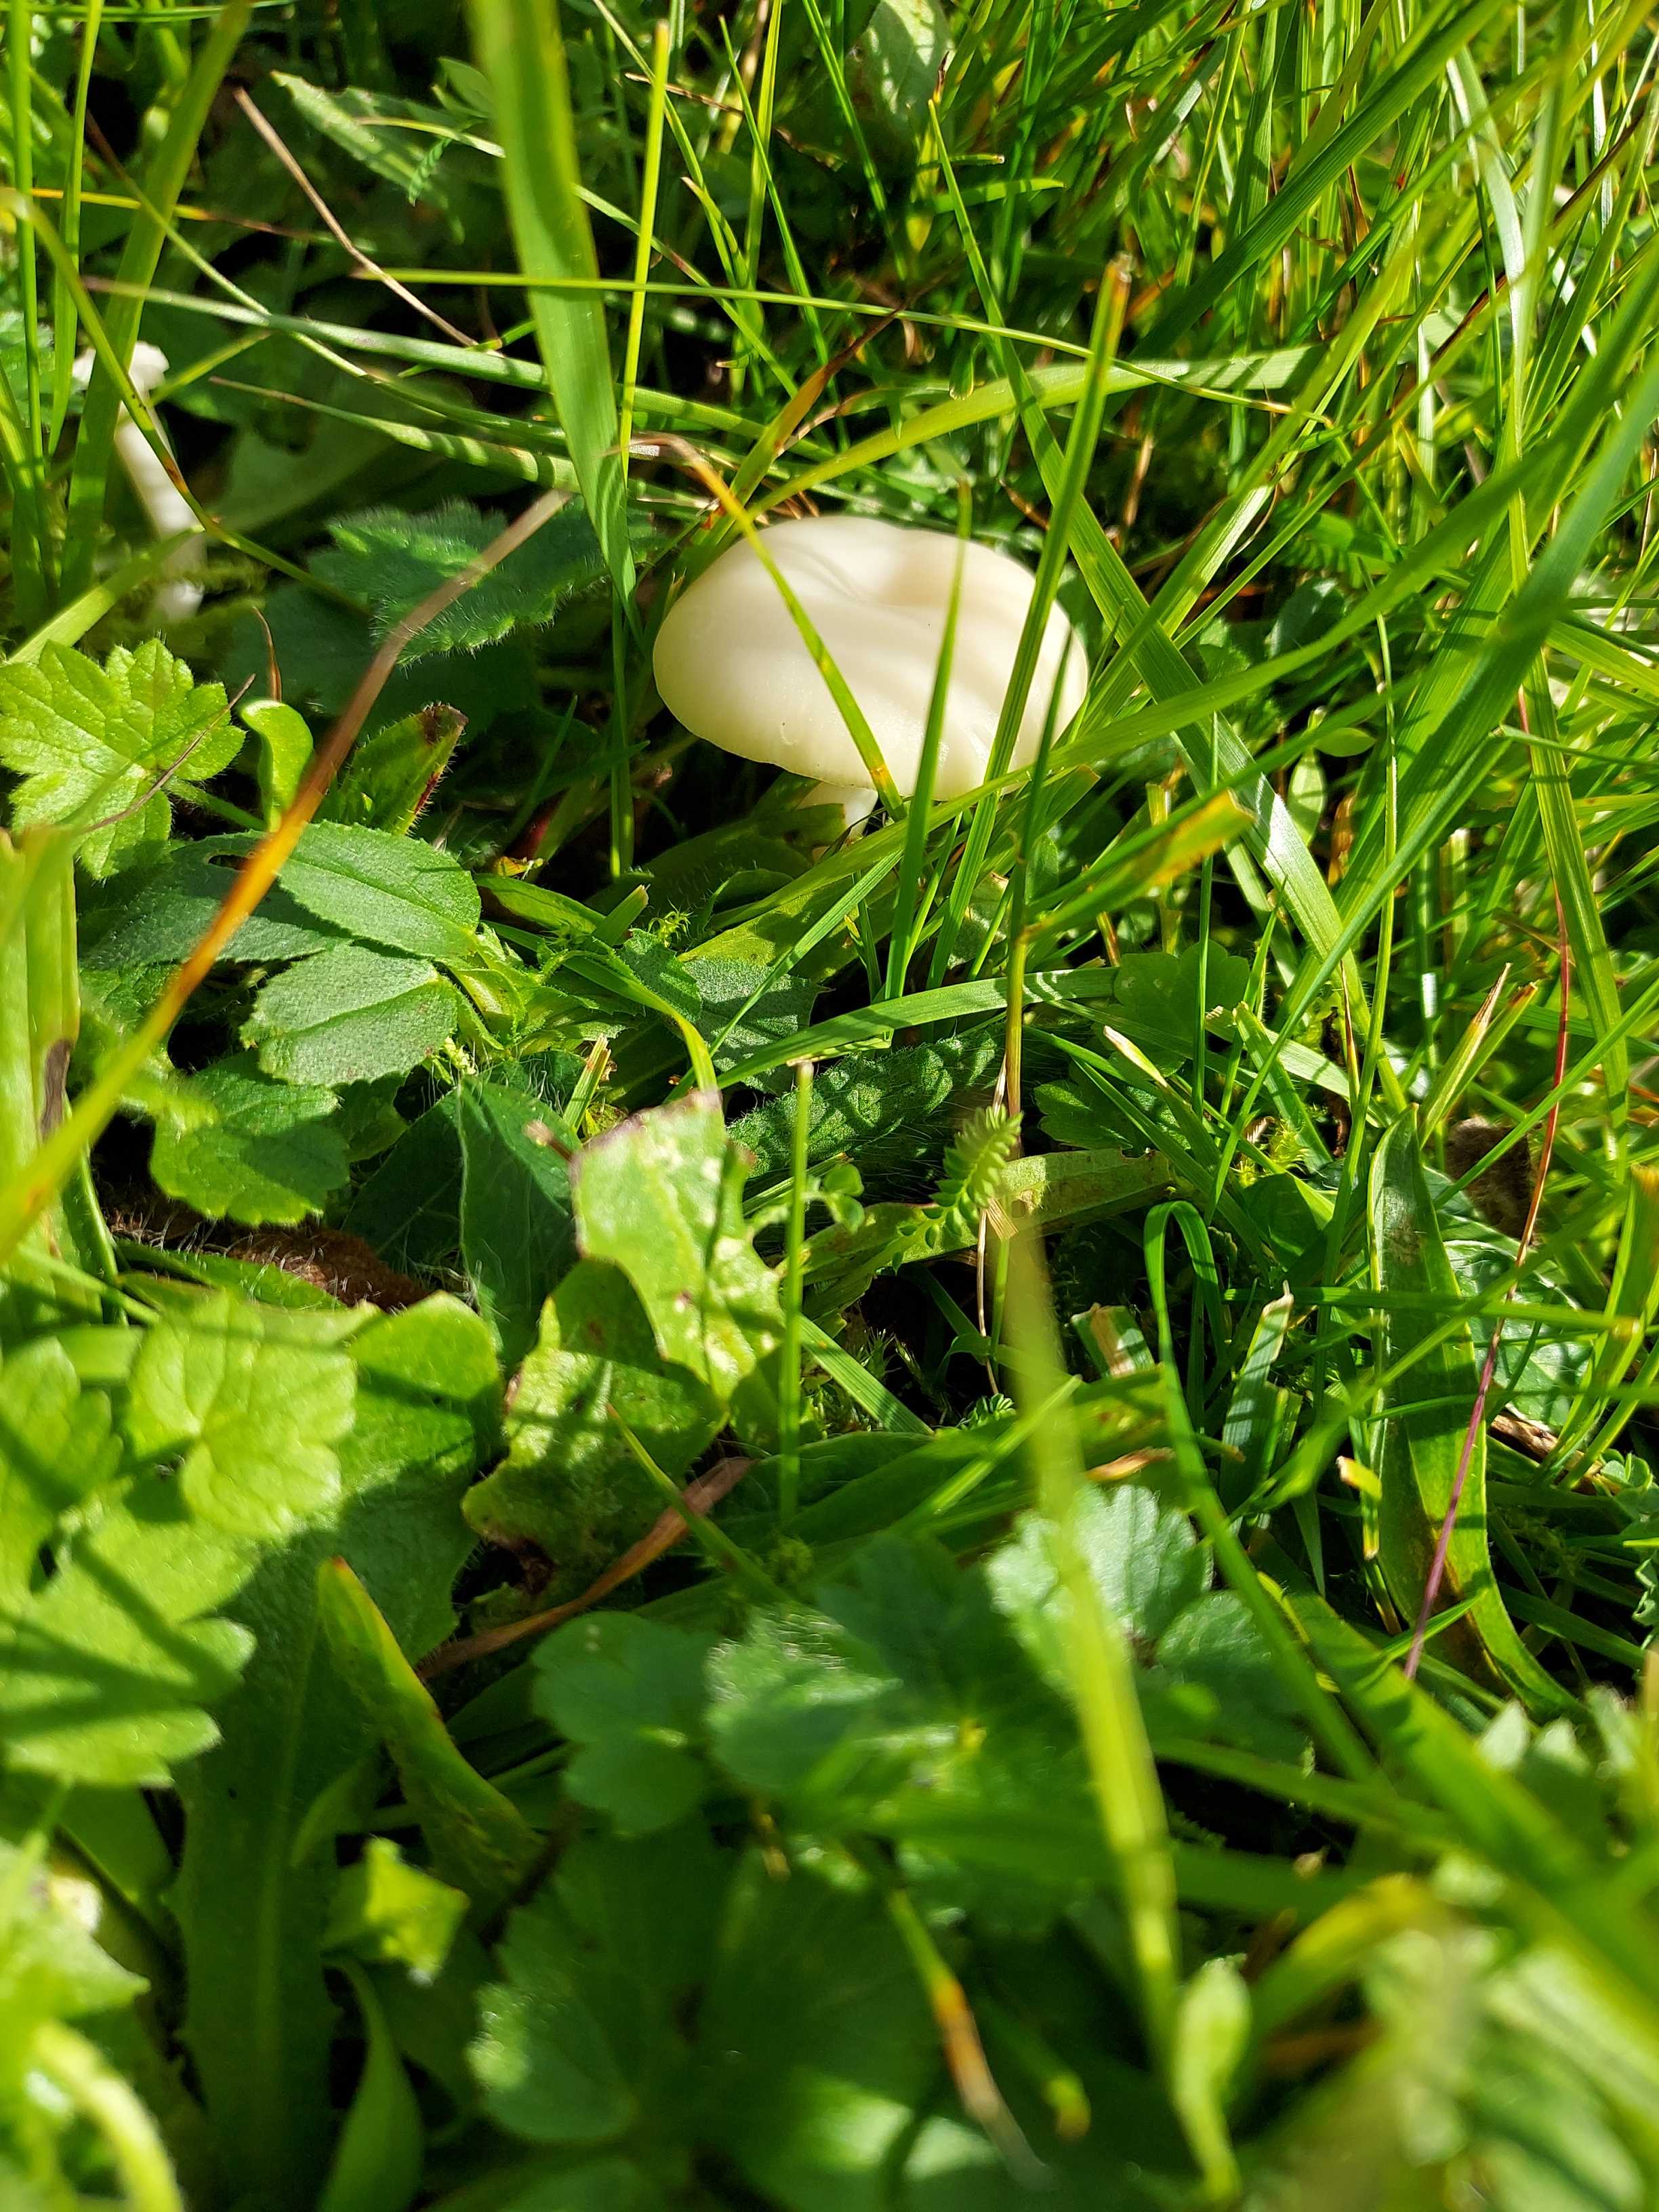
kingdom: Fungi
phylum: Basidiomycota
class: Agaricomycetes
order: Agaricales
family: Hygrophoraceae
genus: Cuphophyllus
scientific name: Cuphophyllus virgineus
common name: snehvid vokshat
